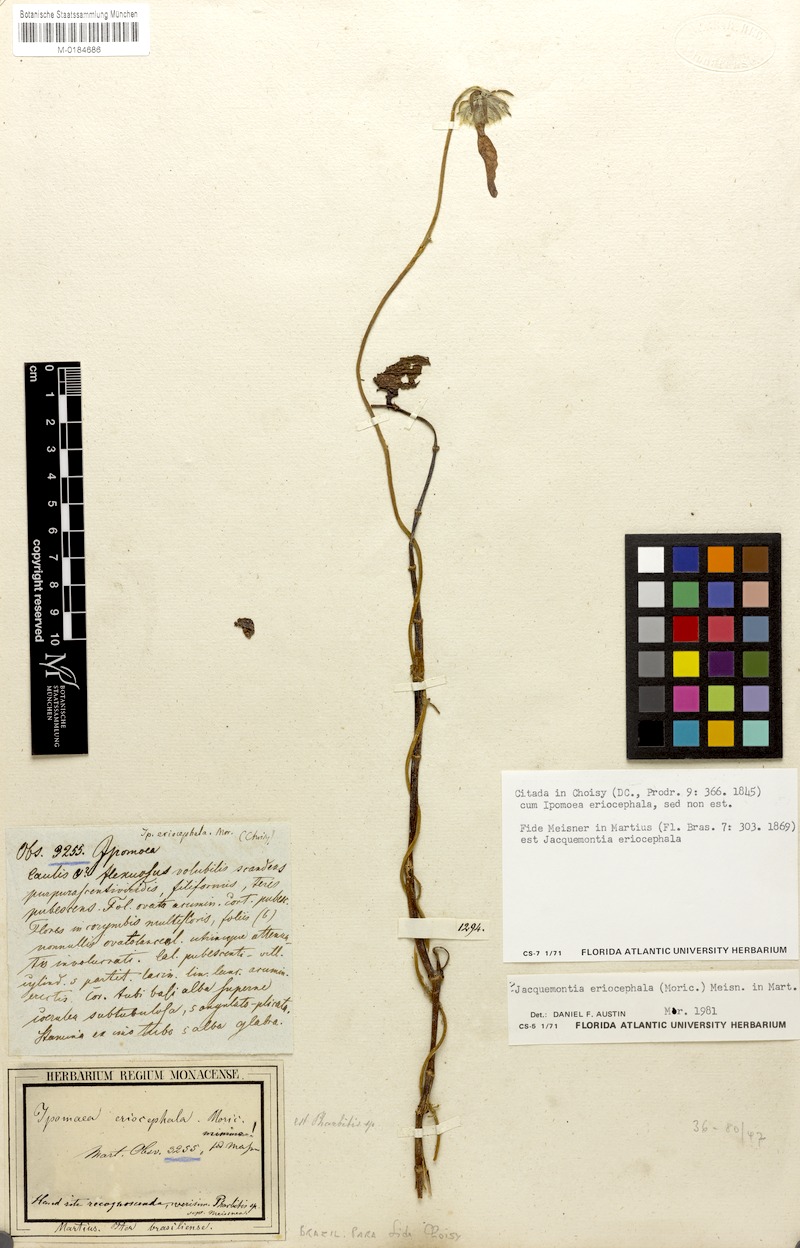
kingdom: Plantae
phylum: Tracheophyta
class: Magnoliopsida
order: Solanales
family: Convolvulaceae
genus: Odonellia
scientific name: Odonellia eriocephala
